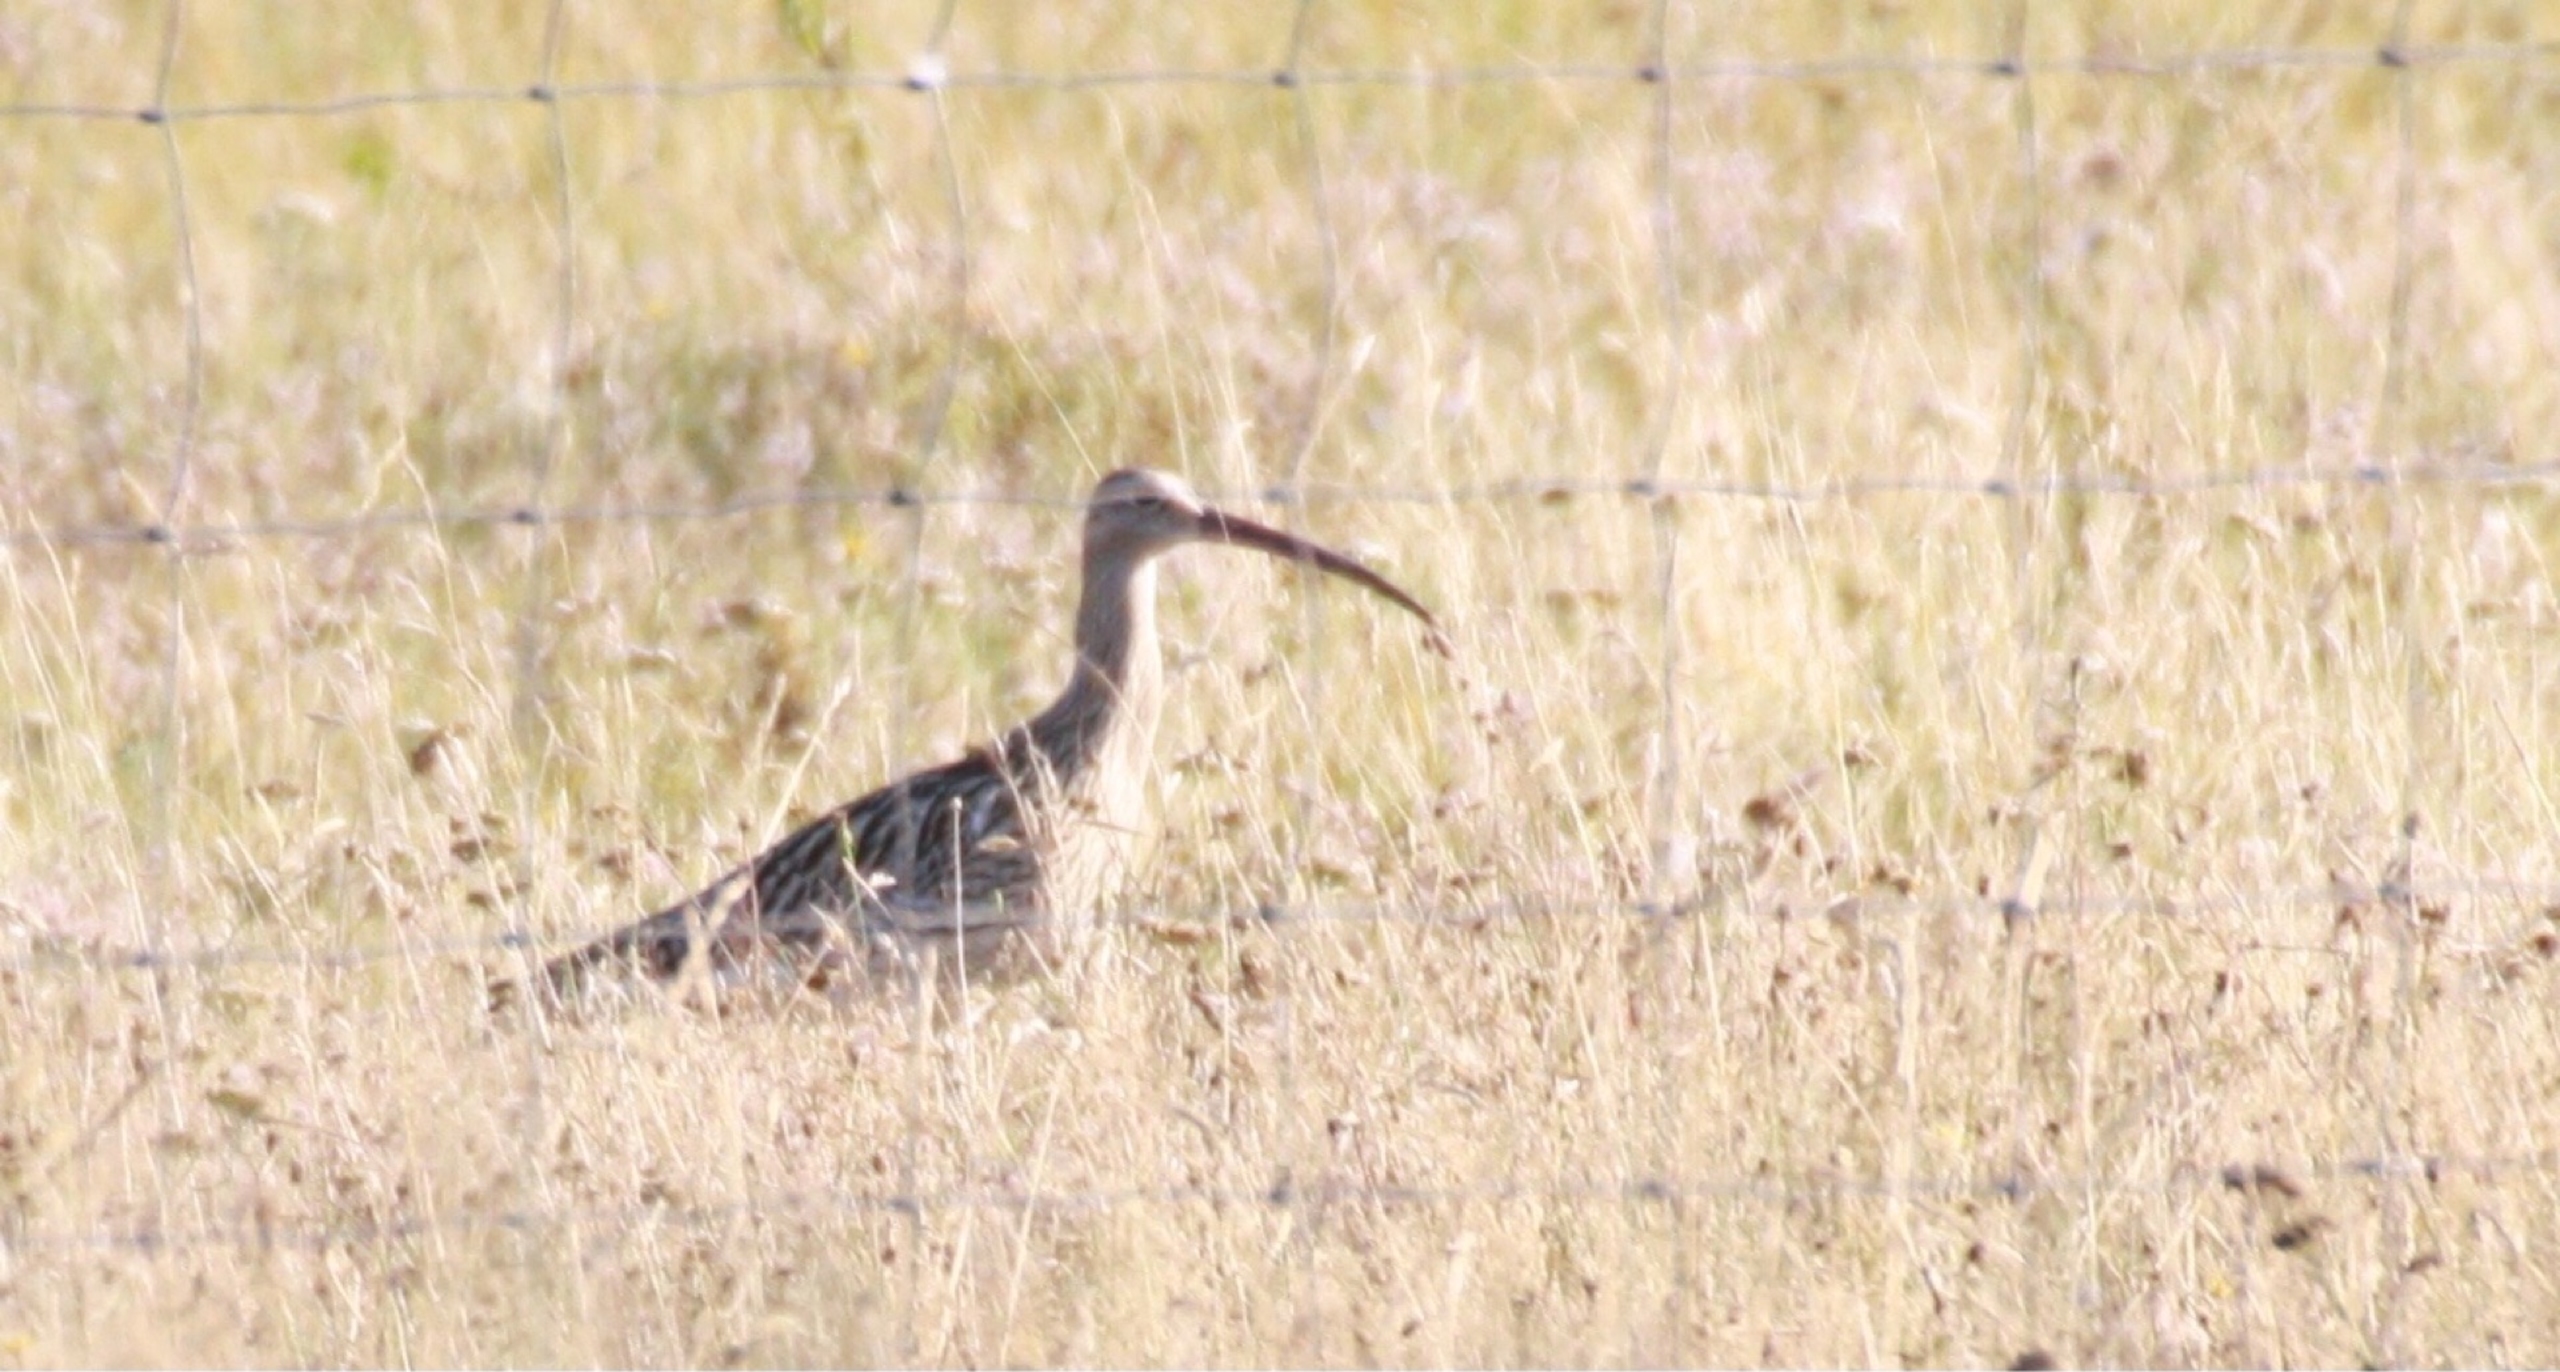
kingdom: Animalia
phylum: Chordata
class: Aves
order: Charadriiformes
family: Scolopacidae
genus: Numenius
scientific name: Numenius arquata
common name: Storspove
